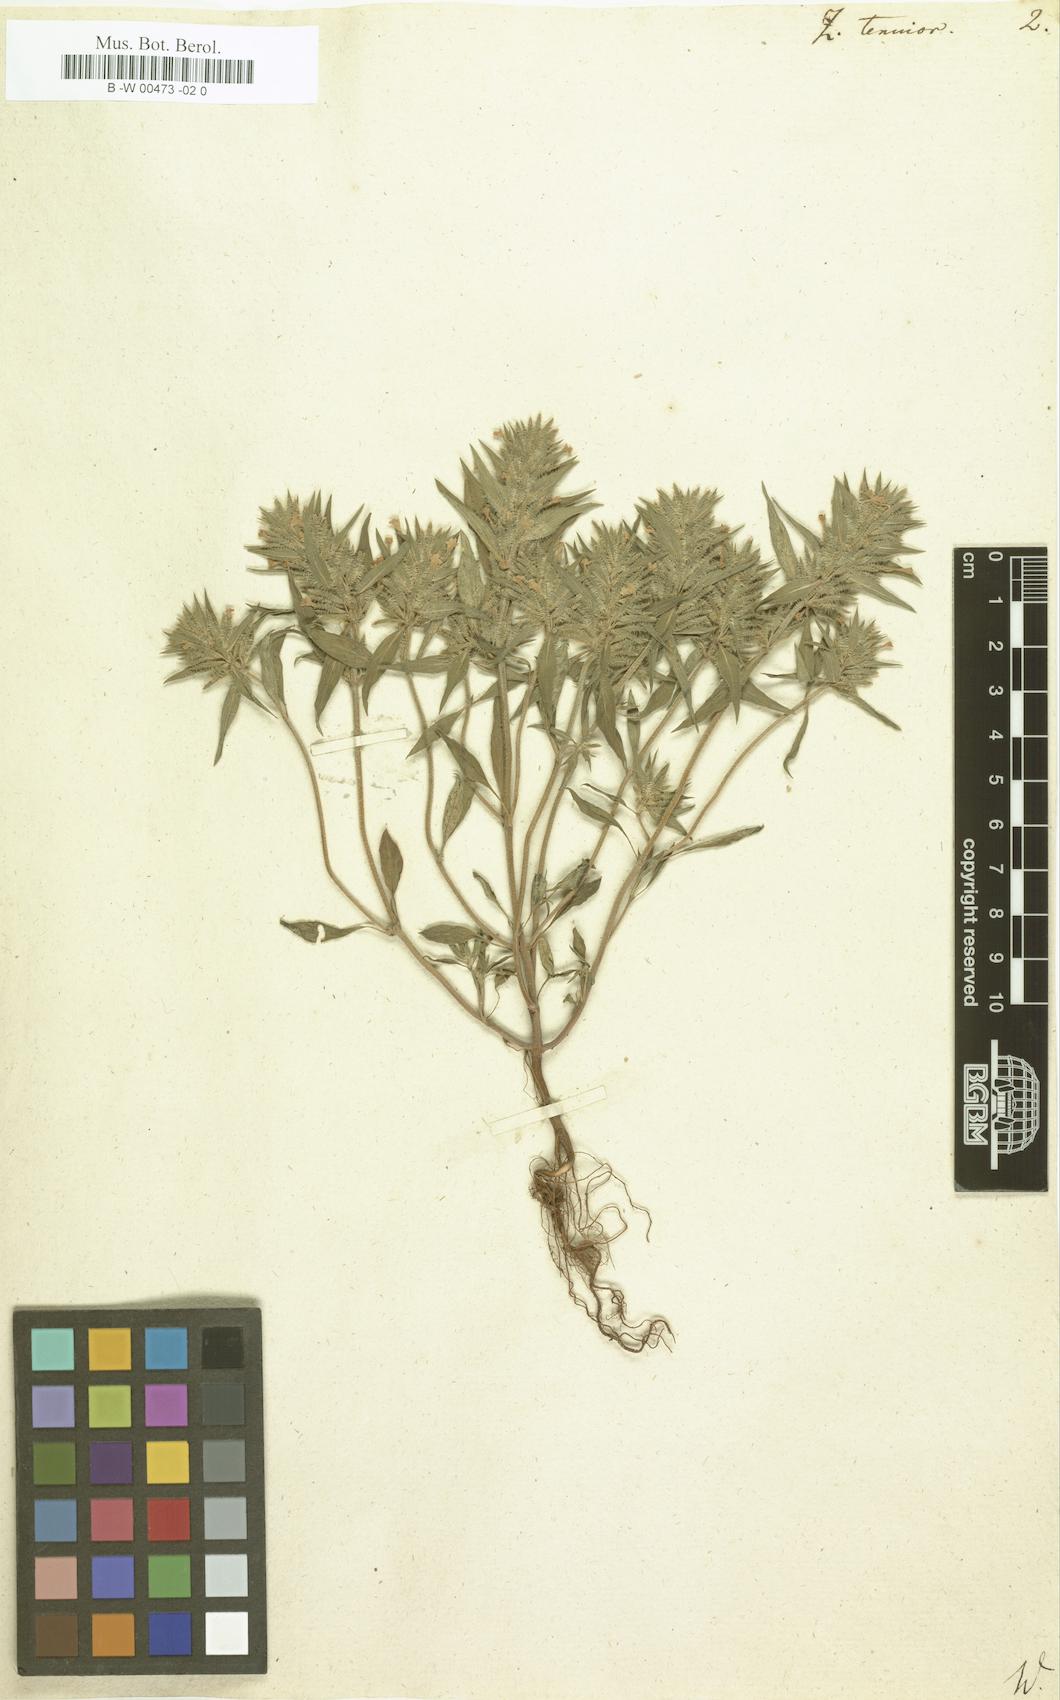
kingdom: Plantae
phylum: Tracheophyta
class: Magnoliopsida
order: Lamiales
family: Lamiaceae
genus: Ziziphora
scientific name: Ziziphora tenuior
